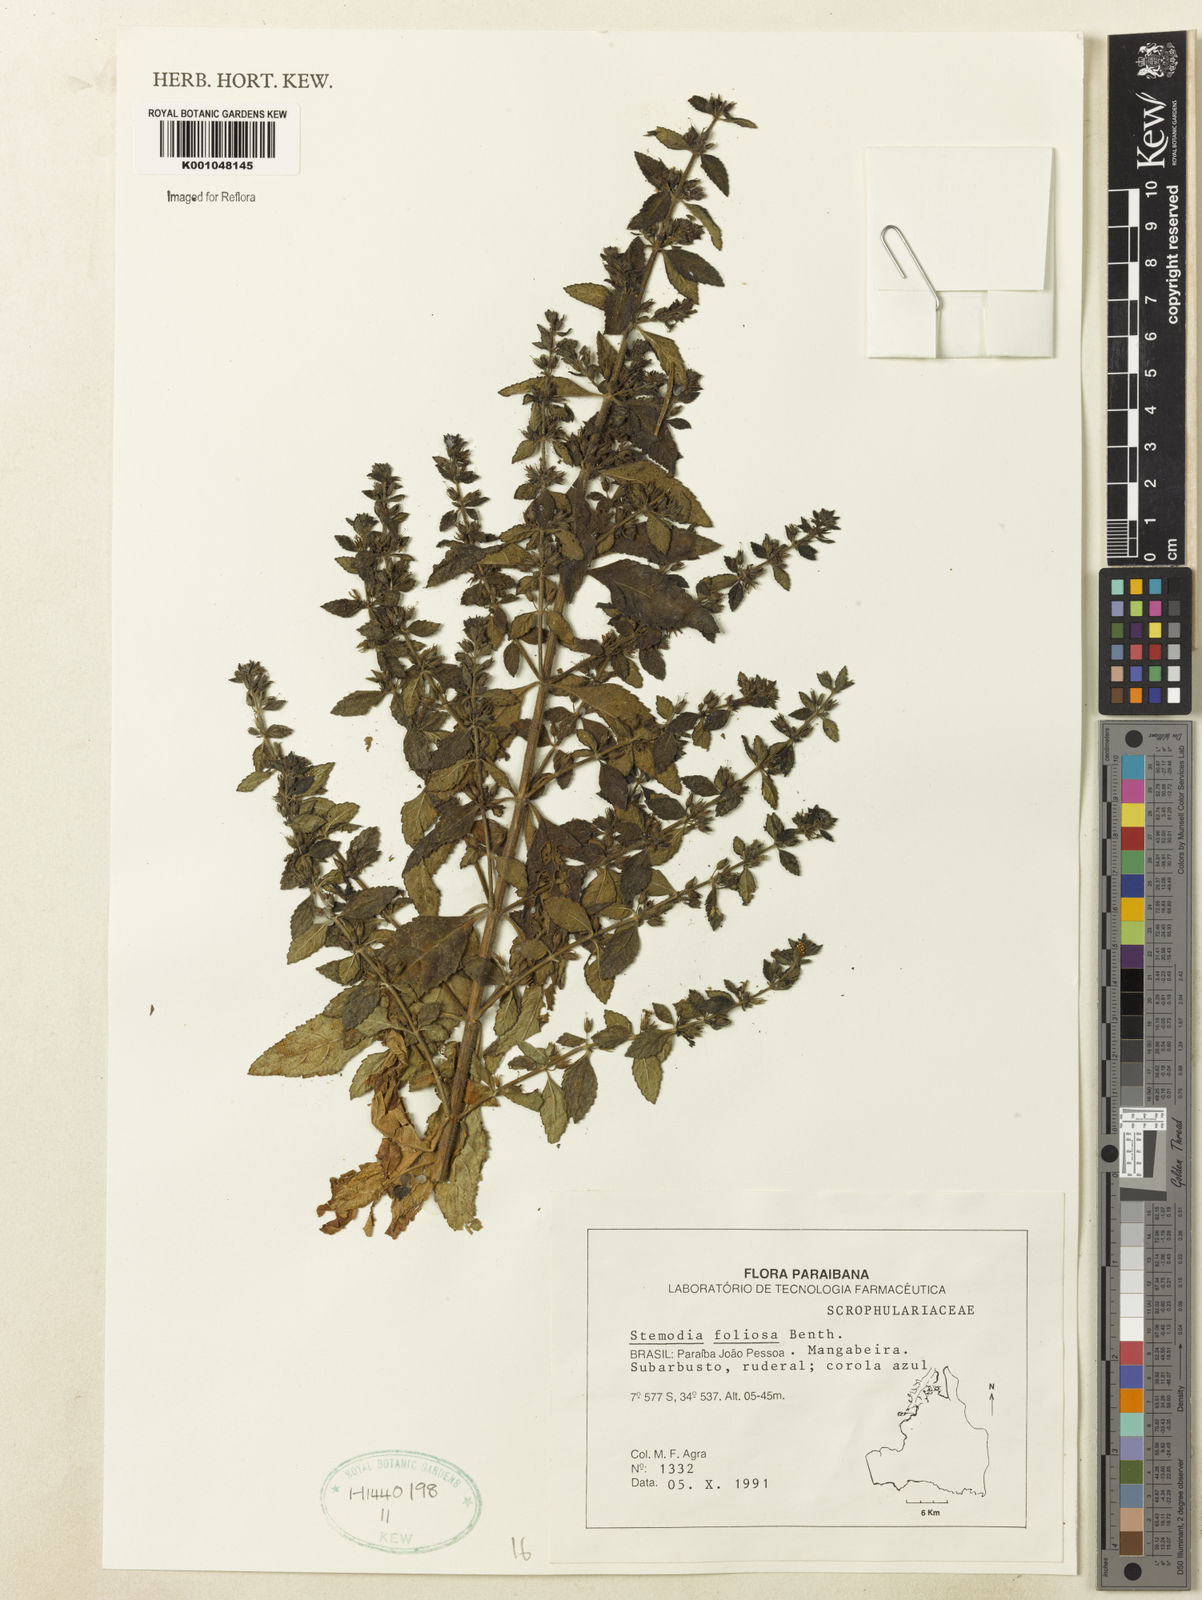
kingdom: Plantae
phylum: Tracheophyta
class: Magnoliopsida
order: Lamiales
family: Plantaginaceae
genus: Stemodia
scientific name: Stemodia foliosa
